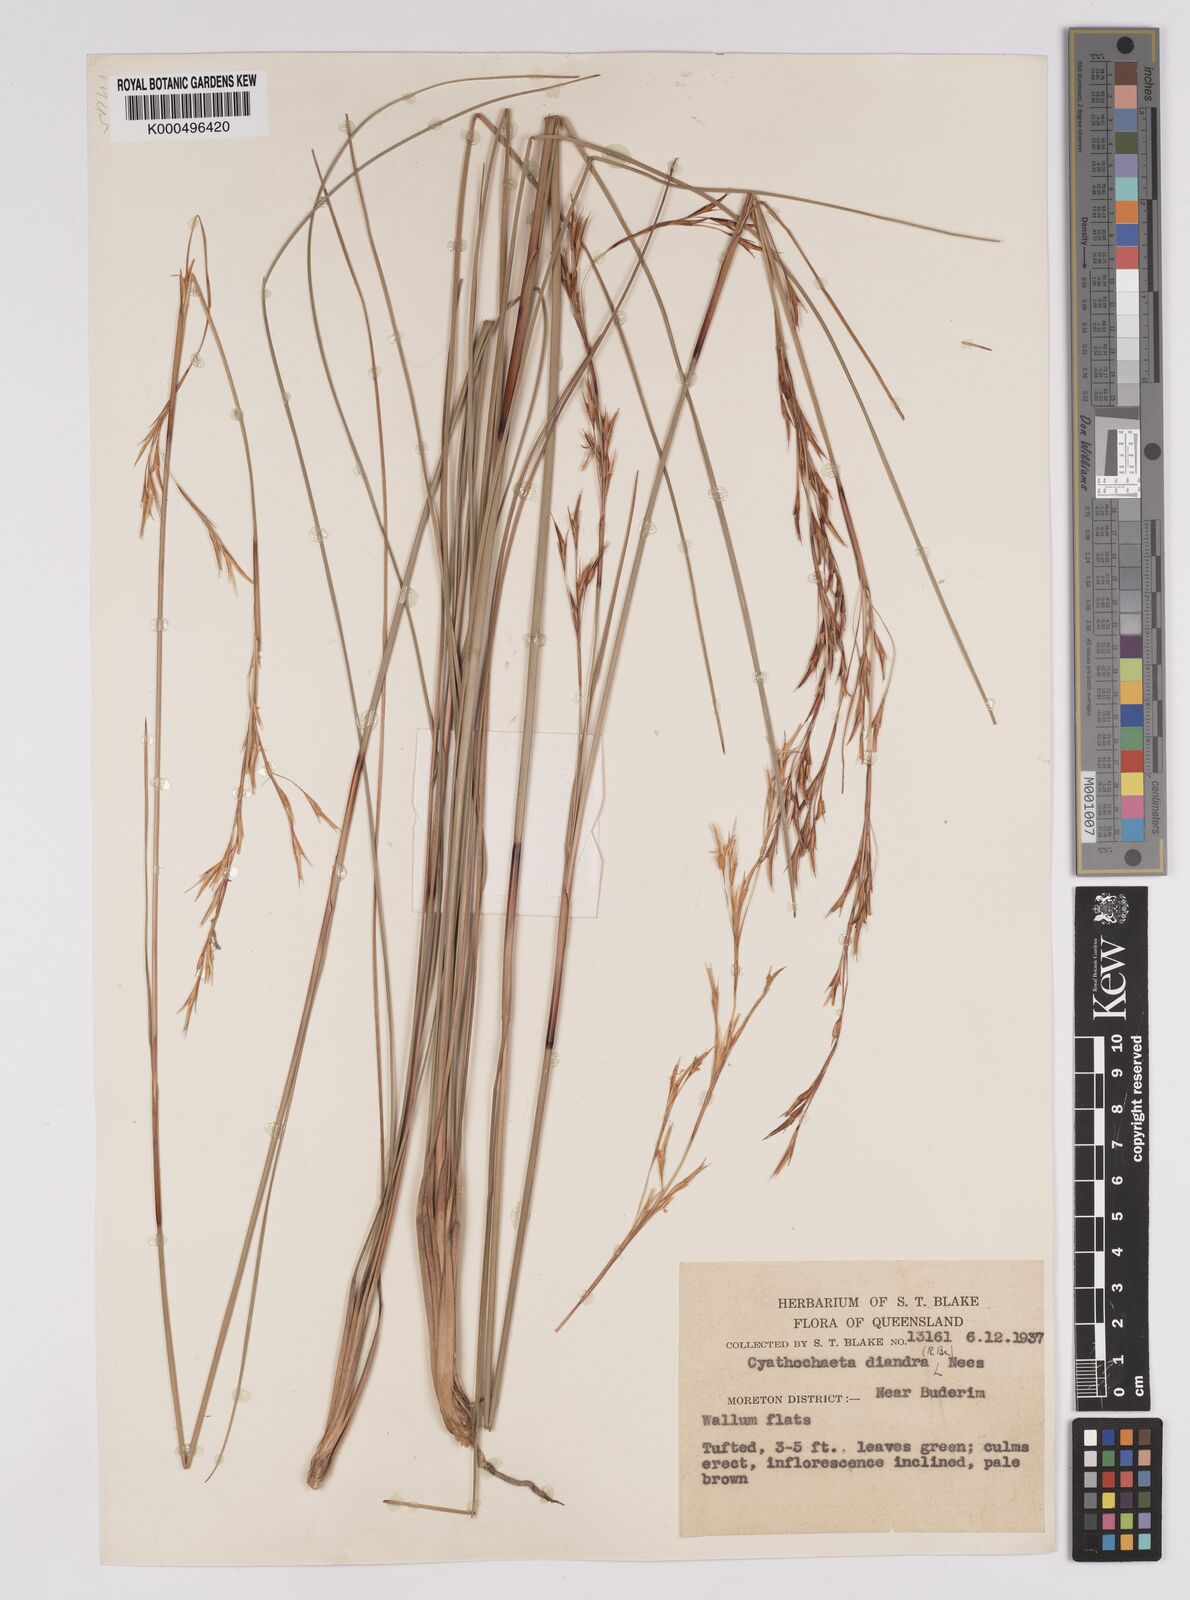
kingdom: Plantae
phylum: Tracheophyta
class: Liliopsida
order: Poales
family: Cyperaceae
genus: Cyathochaeta
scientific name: Cyathochaeta diandra
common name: Sheath rush
